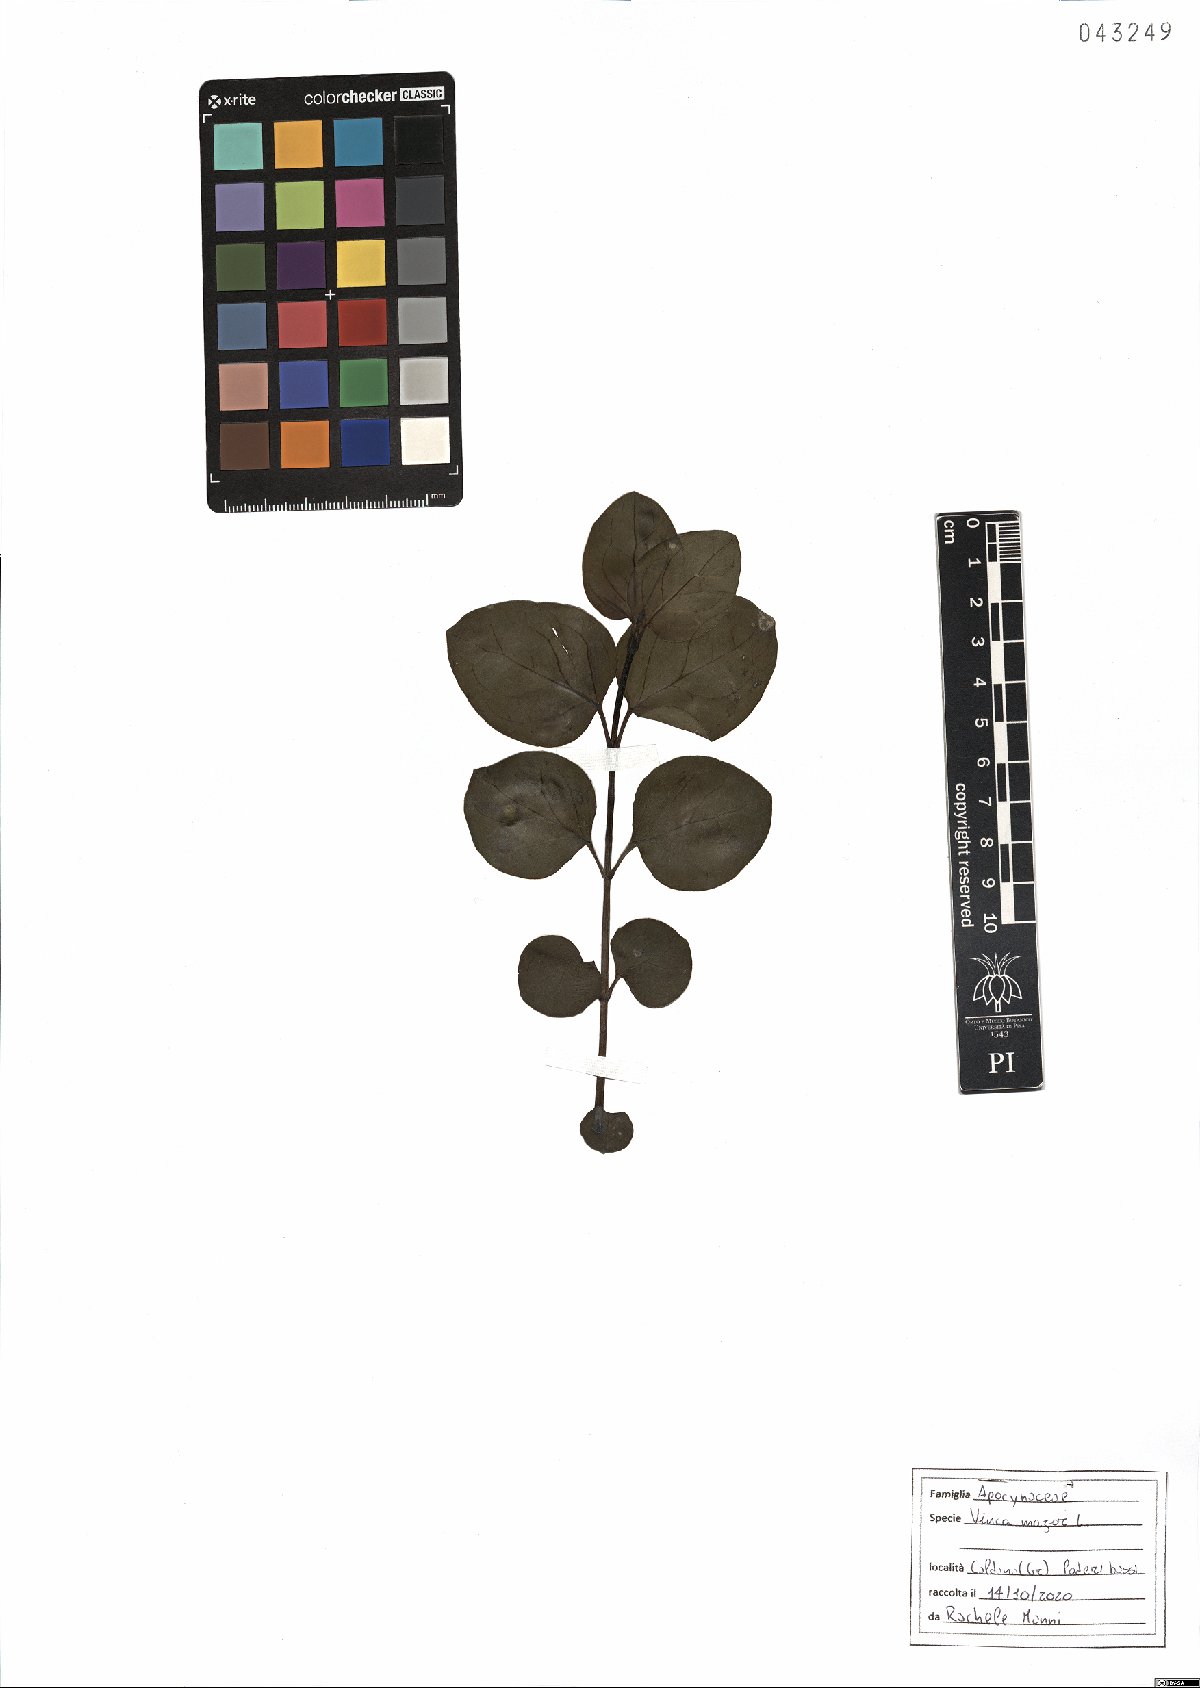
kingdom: Plantae
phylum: Tracheophyta
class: Magnoliopsida
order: Gentianales
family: Apocynaceae
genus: Vinca
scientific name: Vinca major
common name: Greater periwinkle
